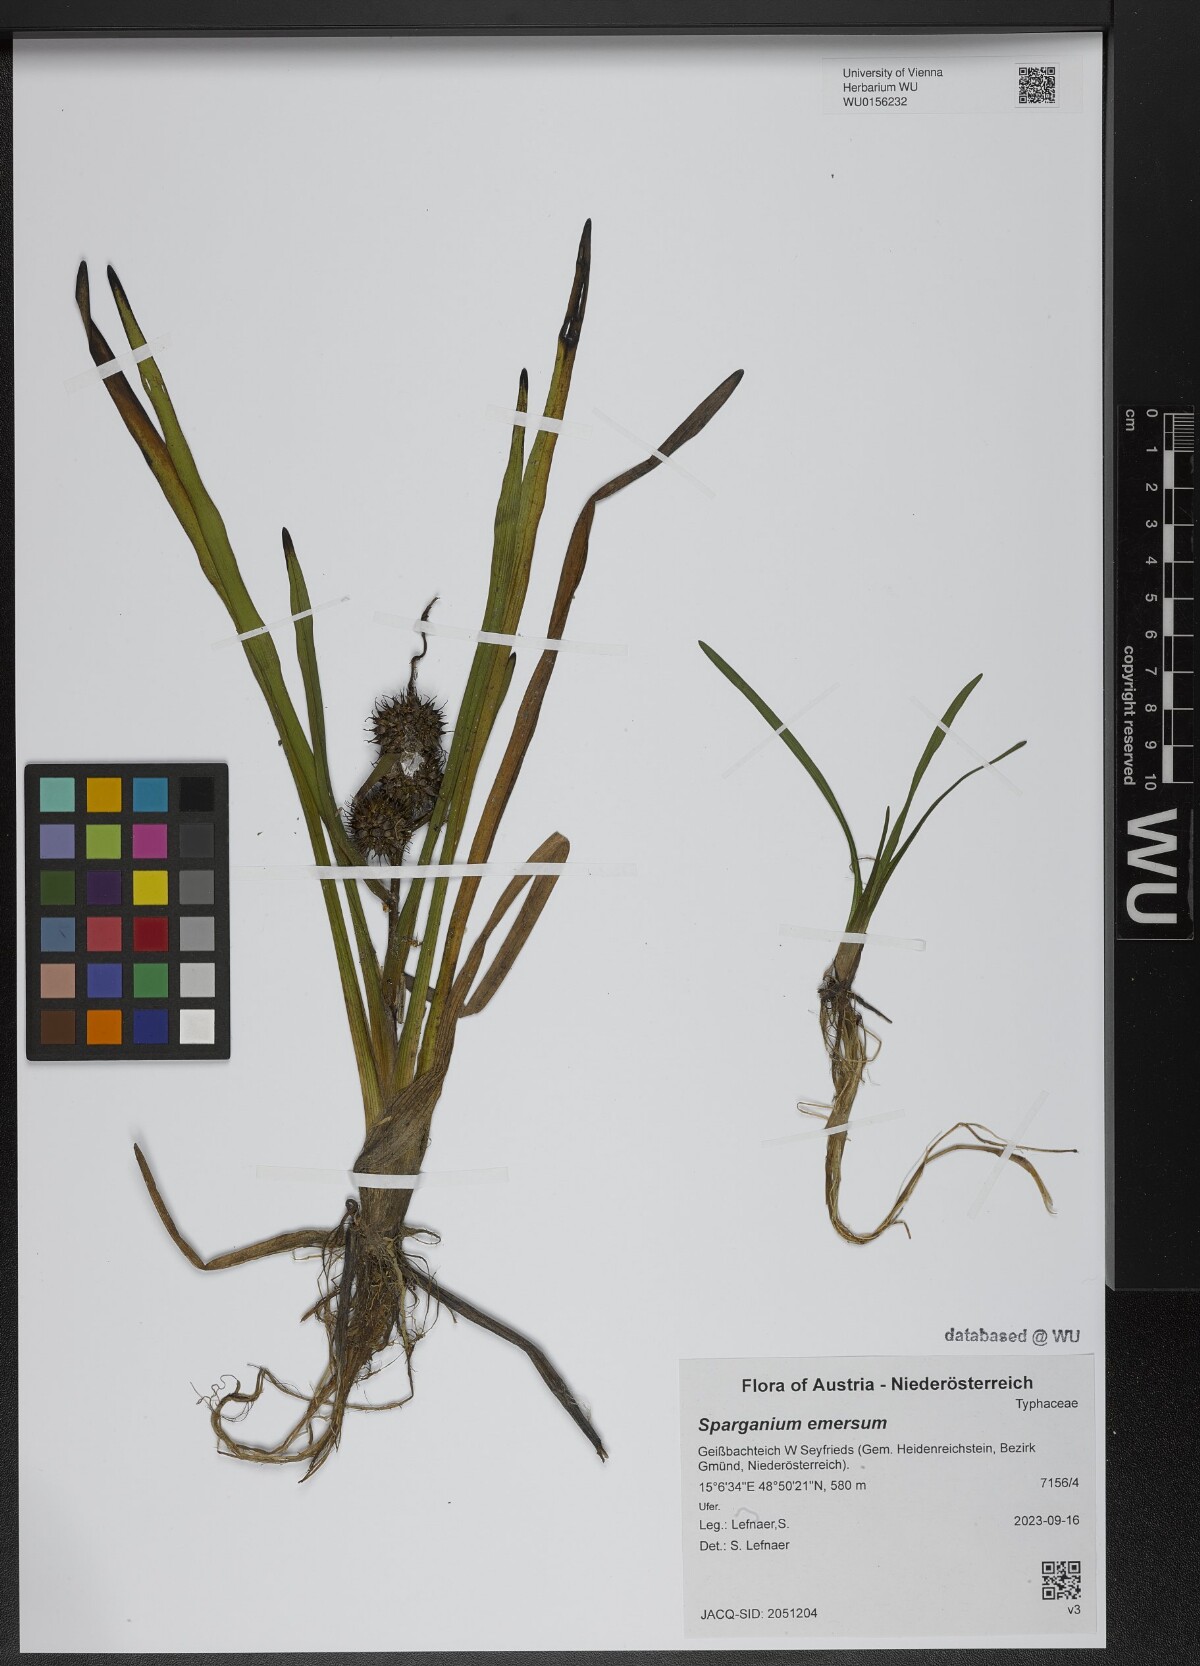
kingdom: Plantae
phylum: Tracheophyta
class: Liliopsida
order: Poales
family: Typhaceae
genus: Sparganium
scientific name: Sparganium emersum
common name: Unbranched bur-reed
